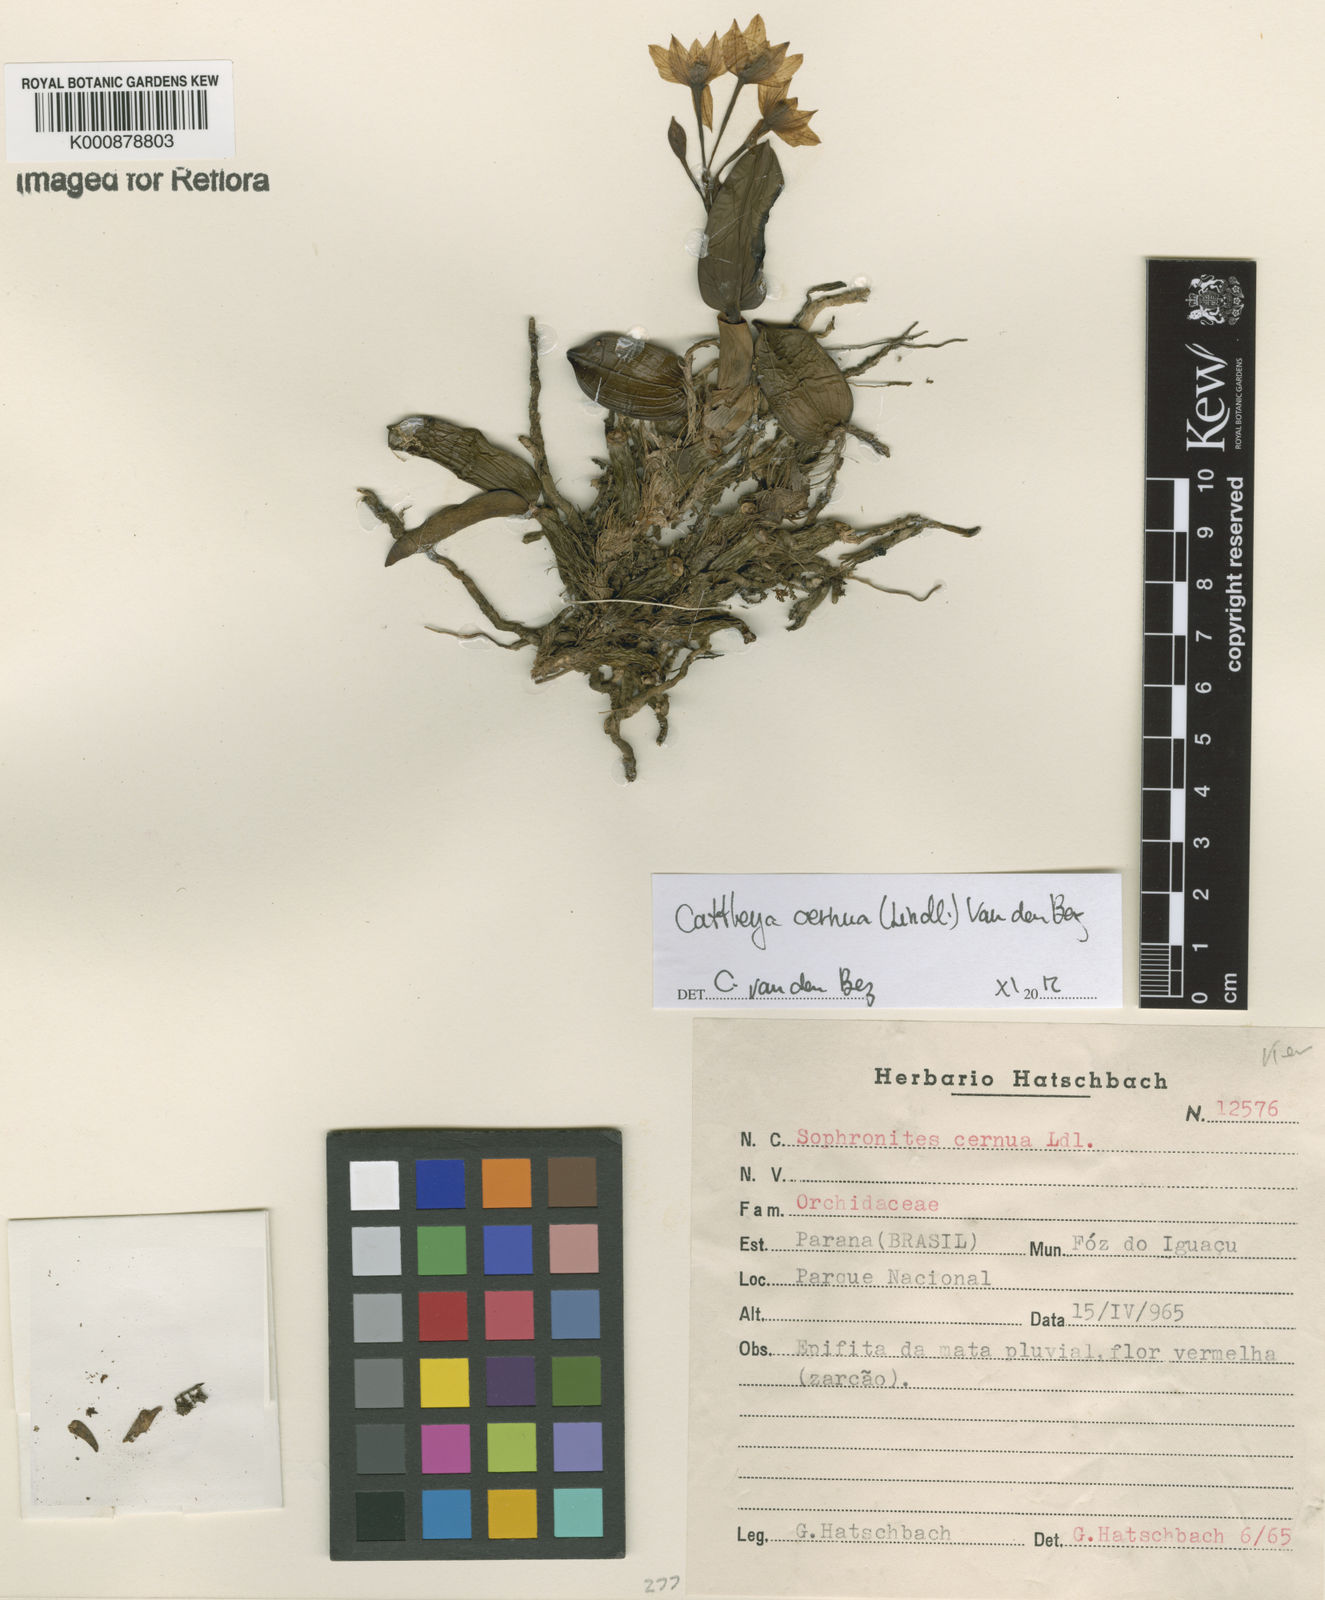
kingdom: Plantae
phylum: Tracheophyta
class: Liliopsida
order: Asparagales
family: Orchidaceae
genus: Cattleya
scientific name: Cattleya
